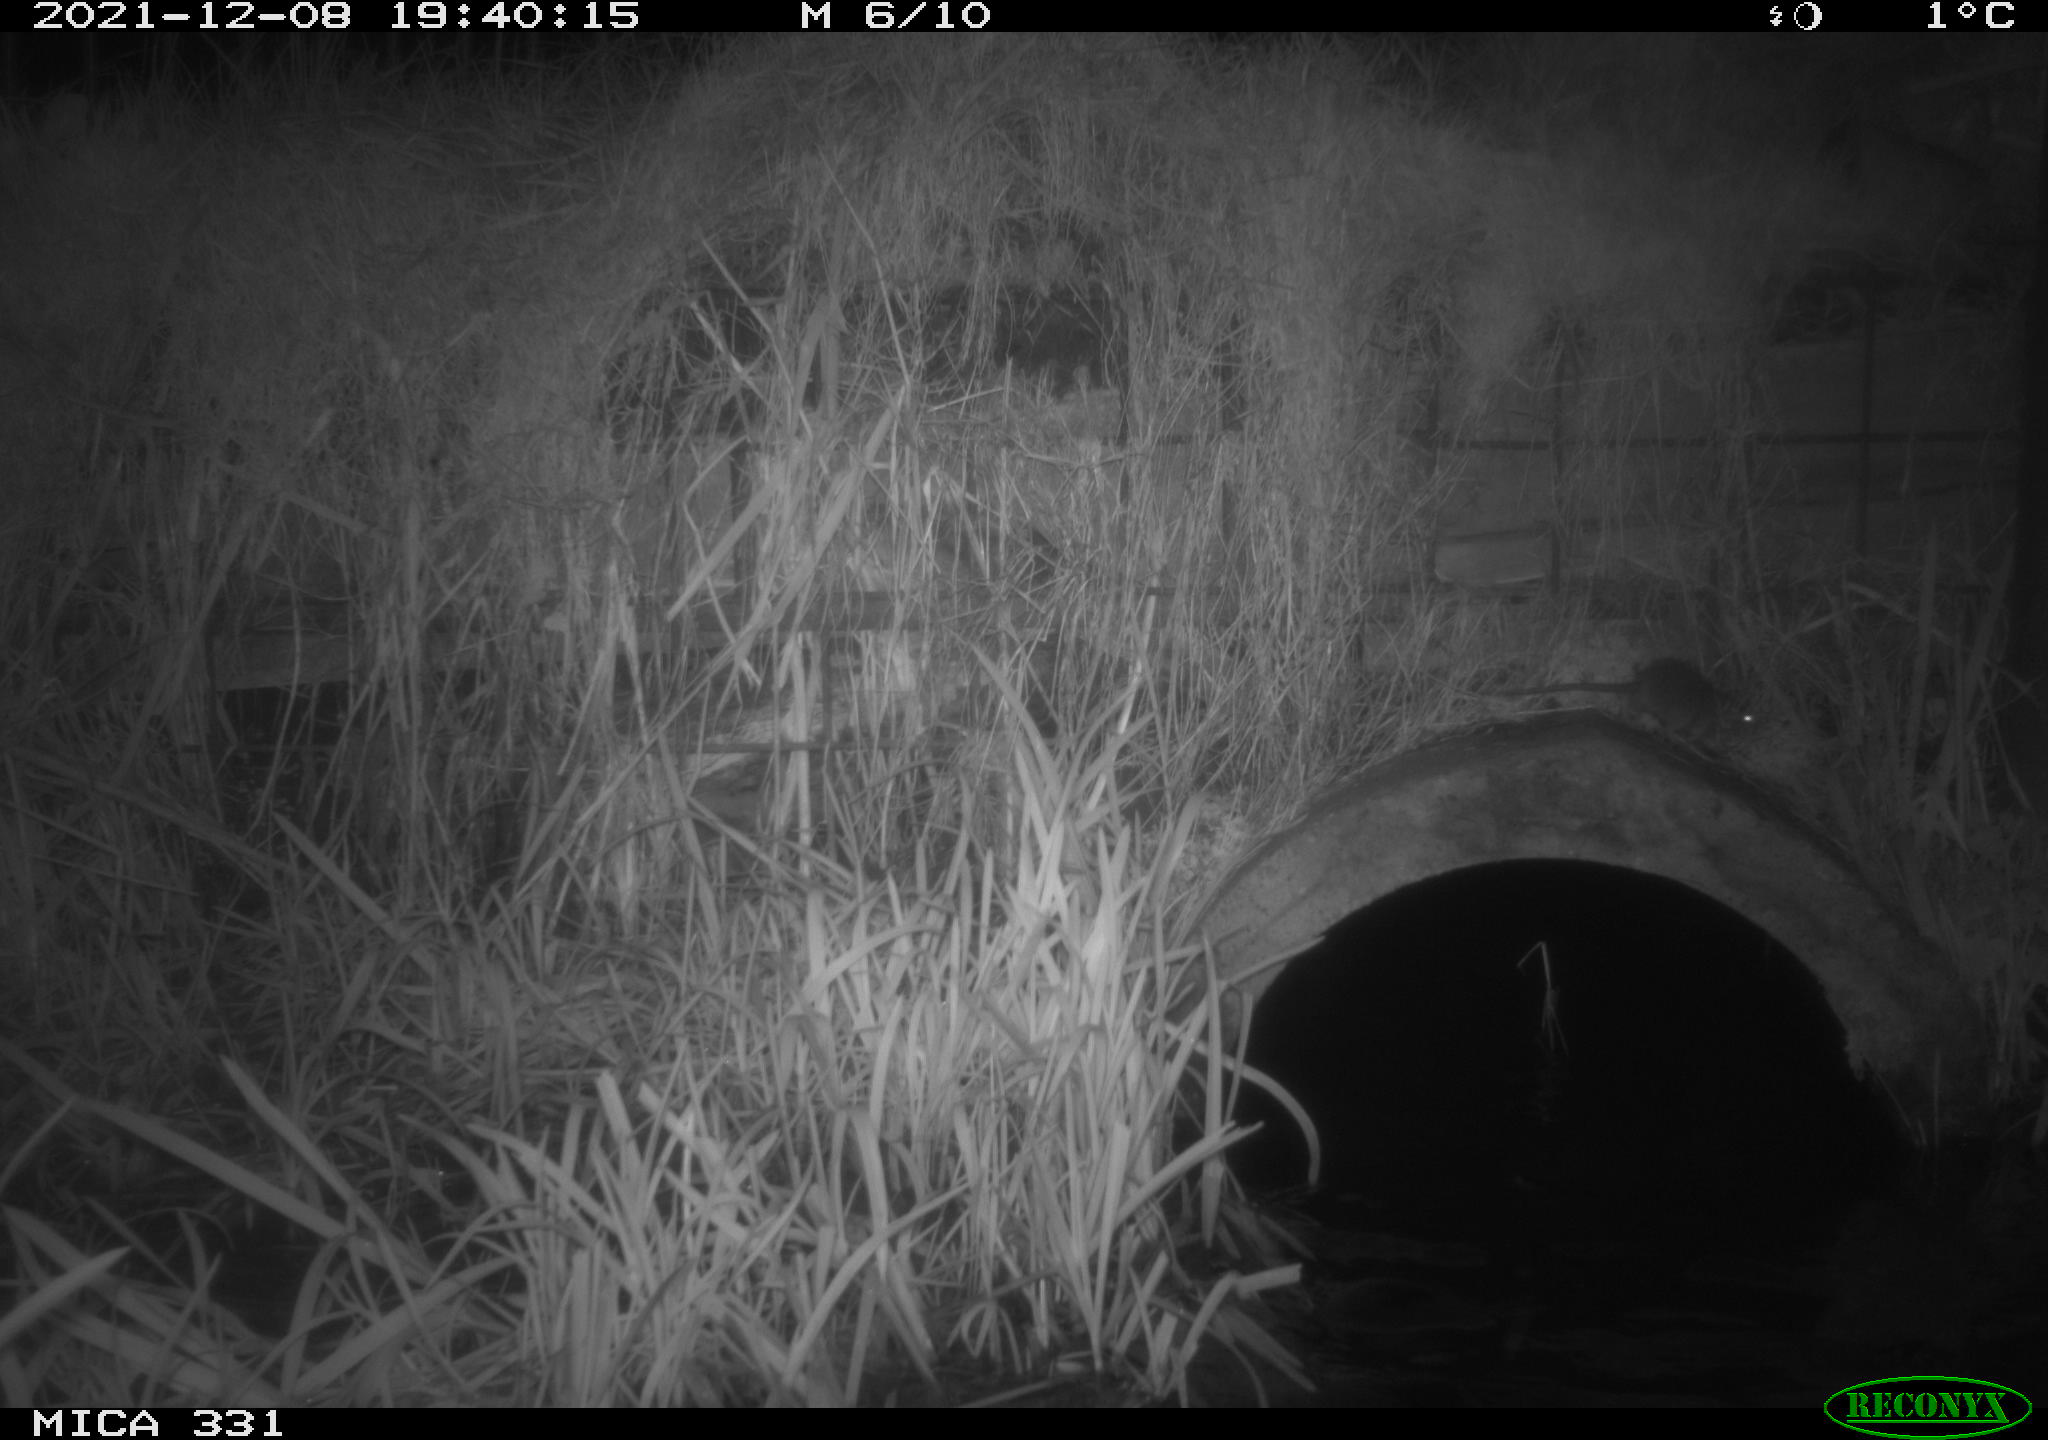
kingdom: Animalia
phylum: Chordata
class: Mammalia
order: Rodentia
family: Muridae
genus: Rattus
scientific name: Rattus norvegicus
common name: Brown rat
